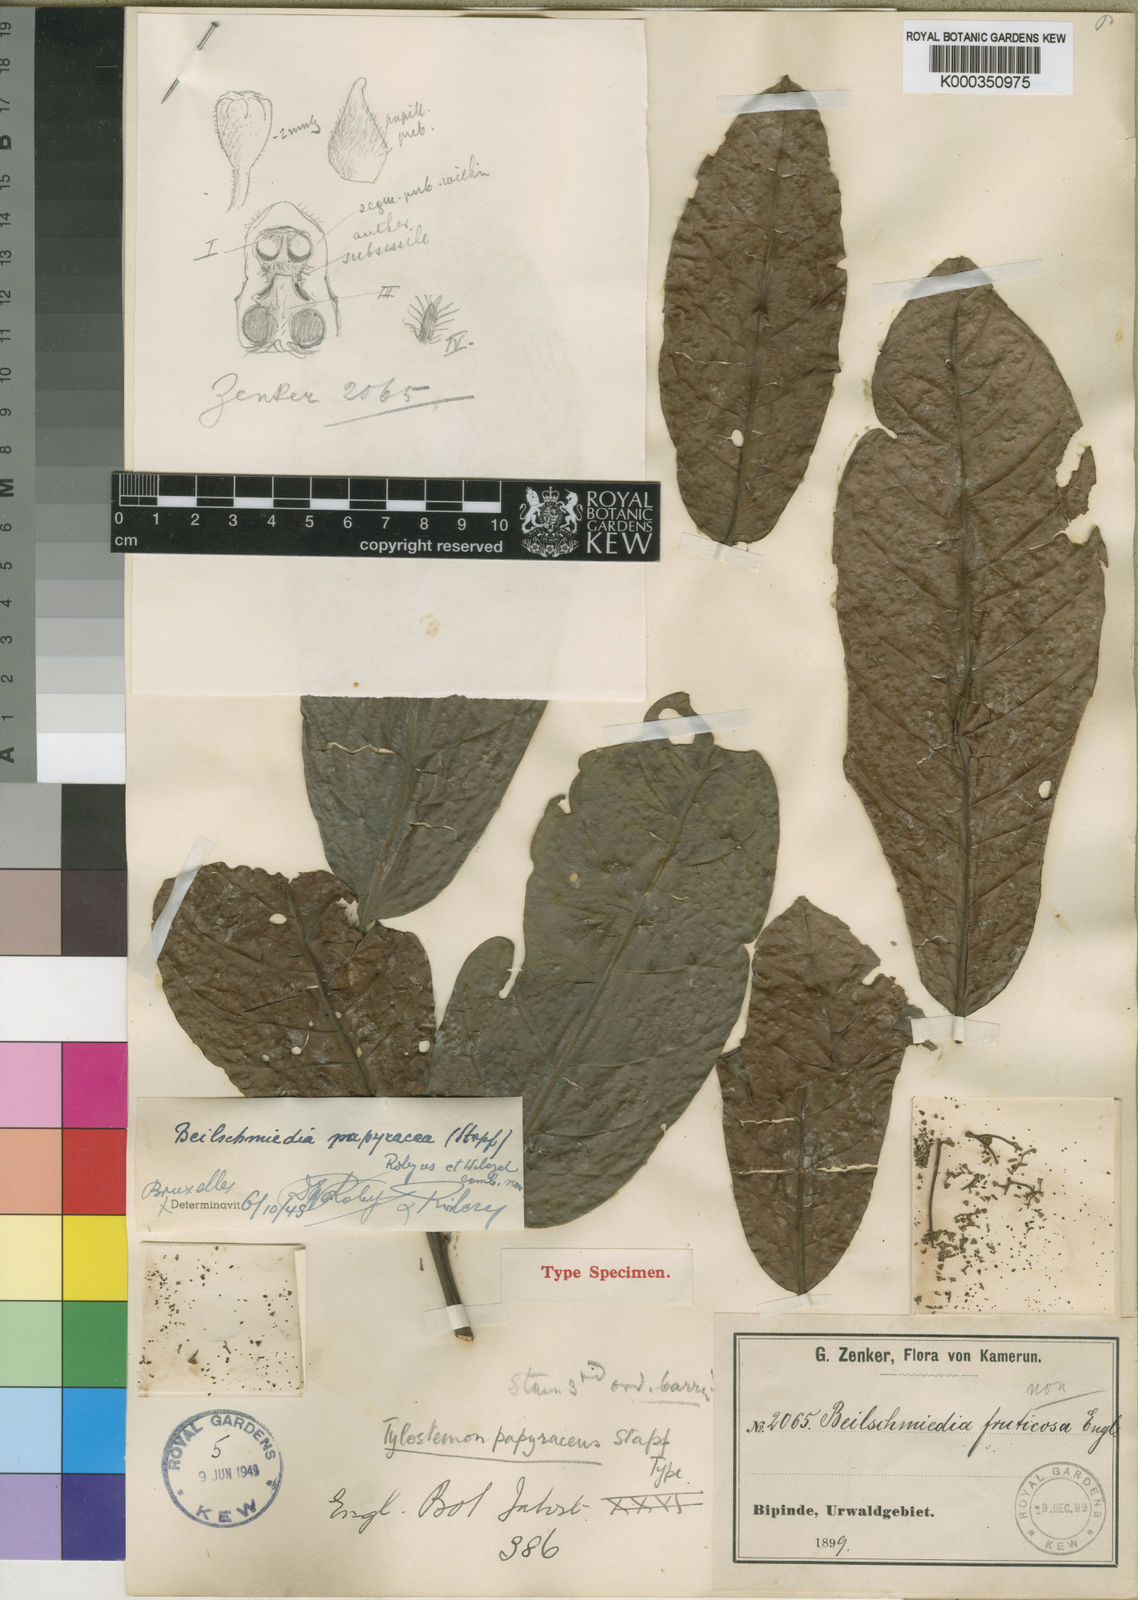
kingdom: Plantae
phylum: Tracheophyta
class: Magnoliopsida
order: Laurales
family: Lauraceae
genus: Beilschmiedia
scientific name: Beilschmiedia papyracea
